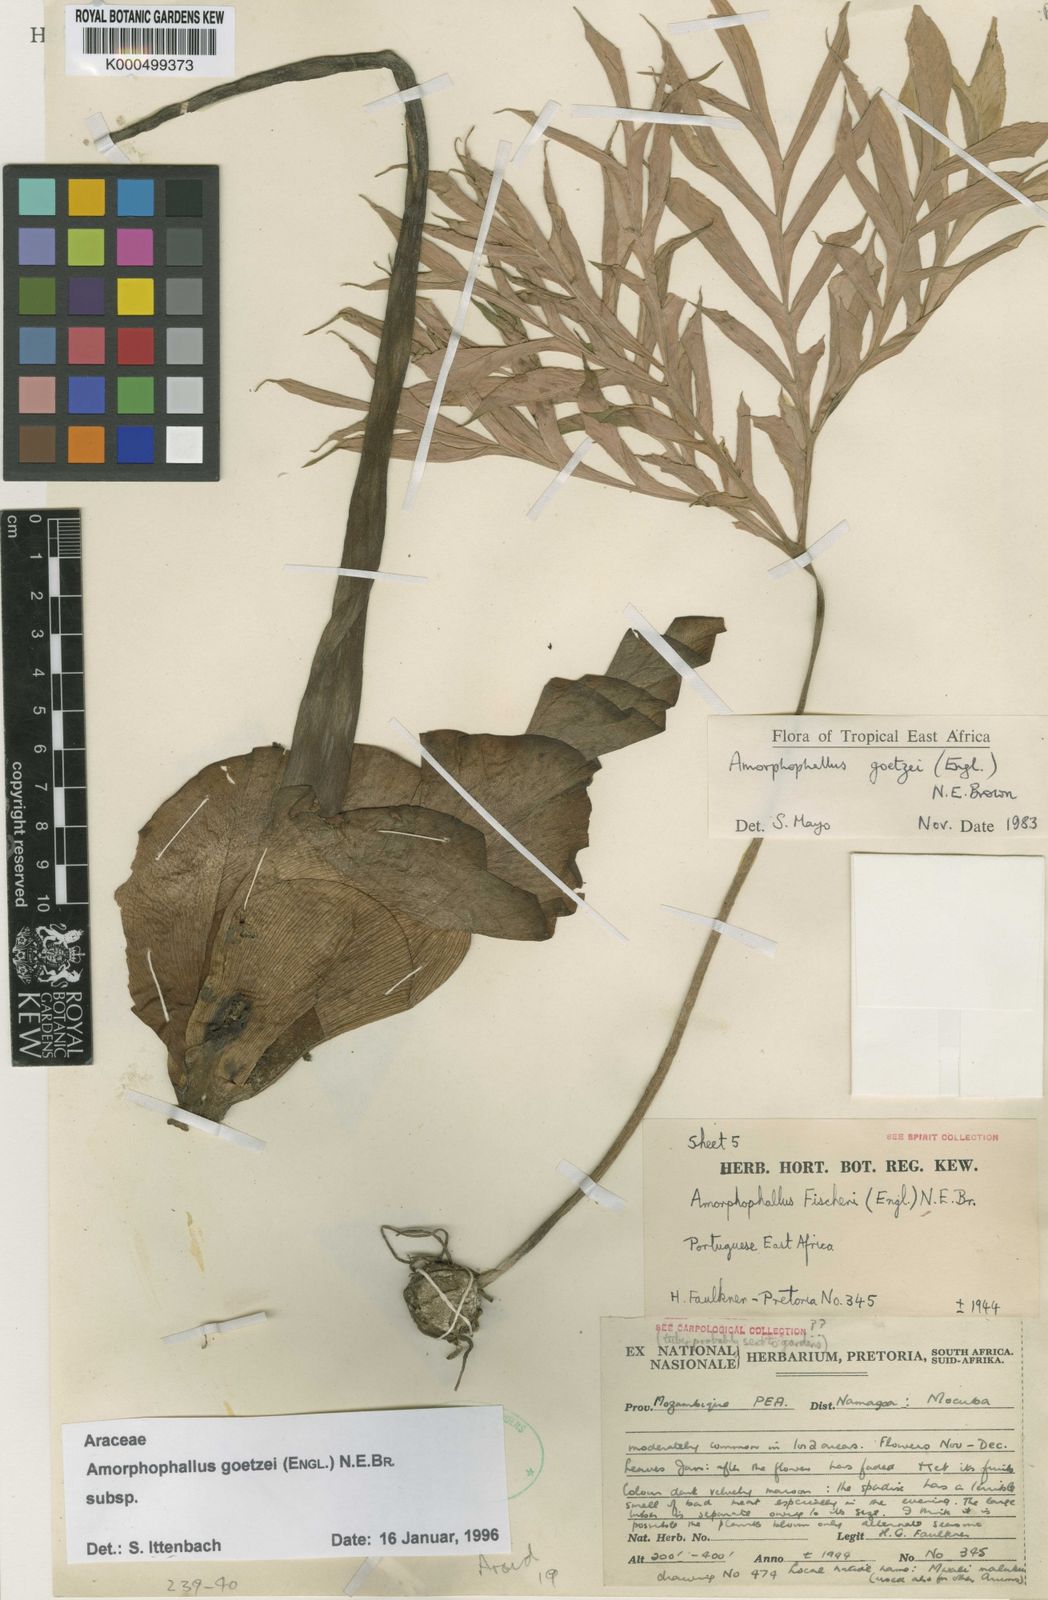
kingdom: Plantae
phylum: Tracheophyta
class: Liliopsida
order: Alismatales
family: Araceae
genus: Amorphophallus
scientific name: Amorphophallus
